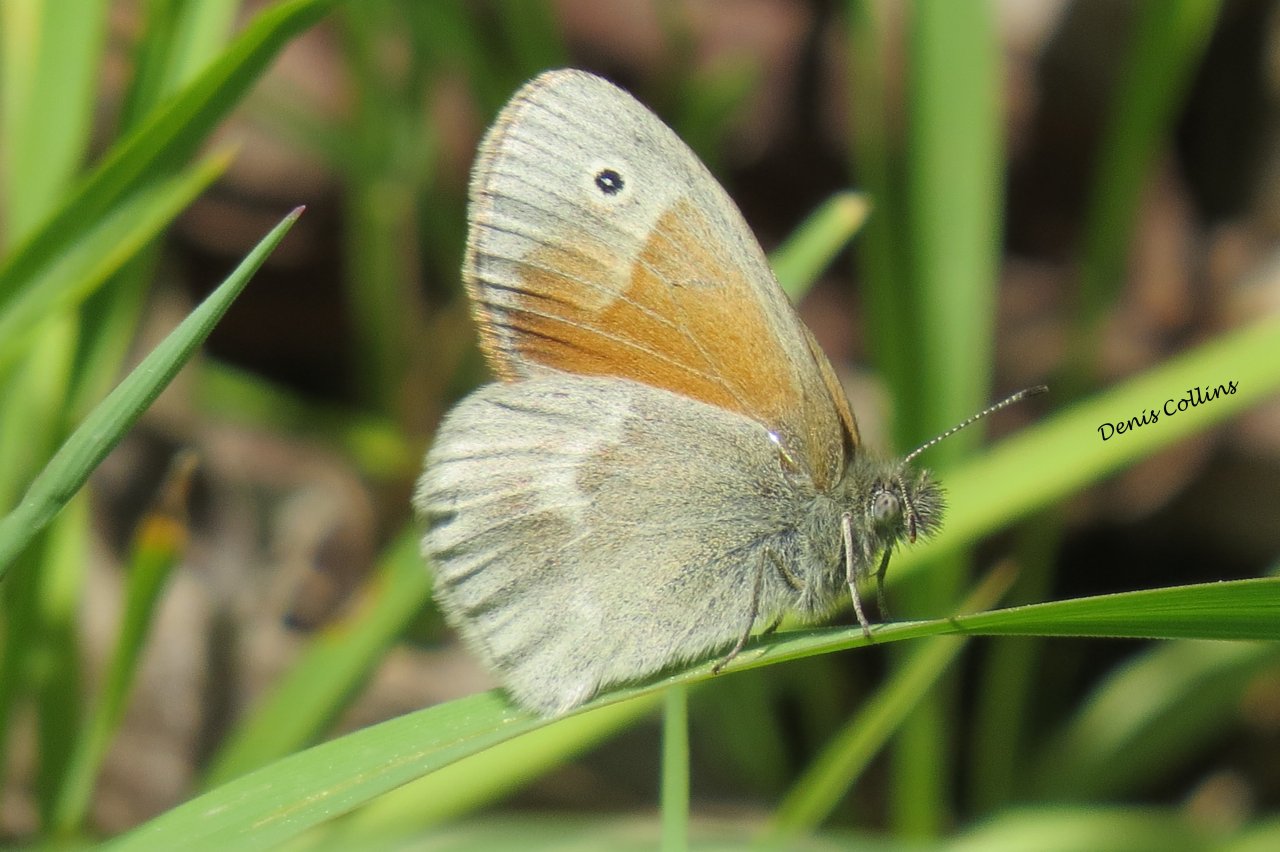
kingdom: Animalia
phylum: Arthropoda
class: Insecta
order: Lepidoptera
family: Nymphalidae
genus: Coenonympha
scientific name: Coenonympha tullia
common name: Large Heath
